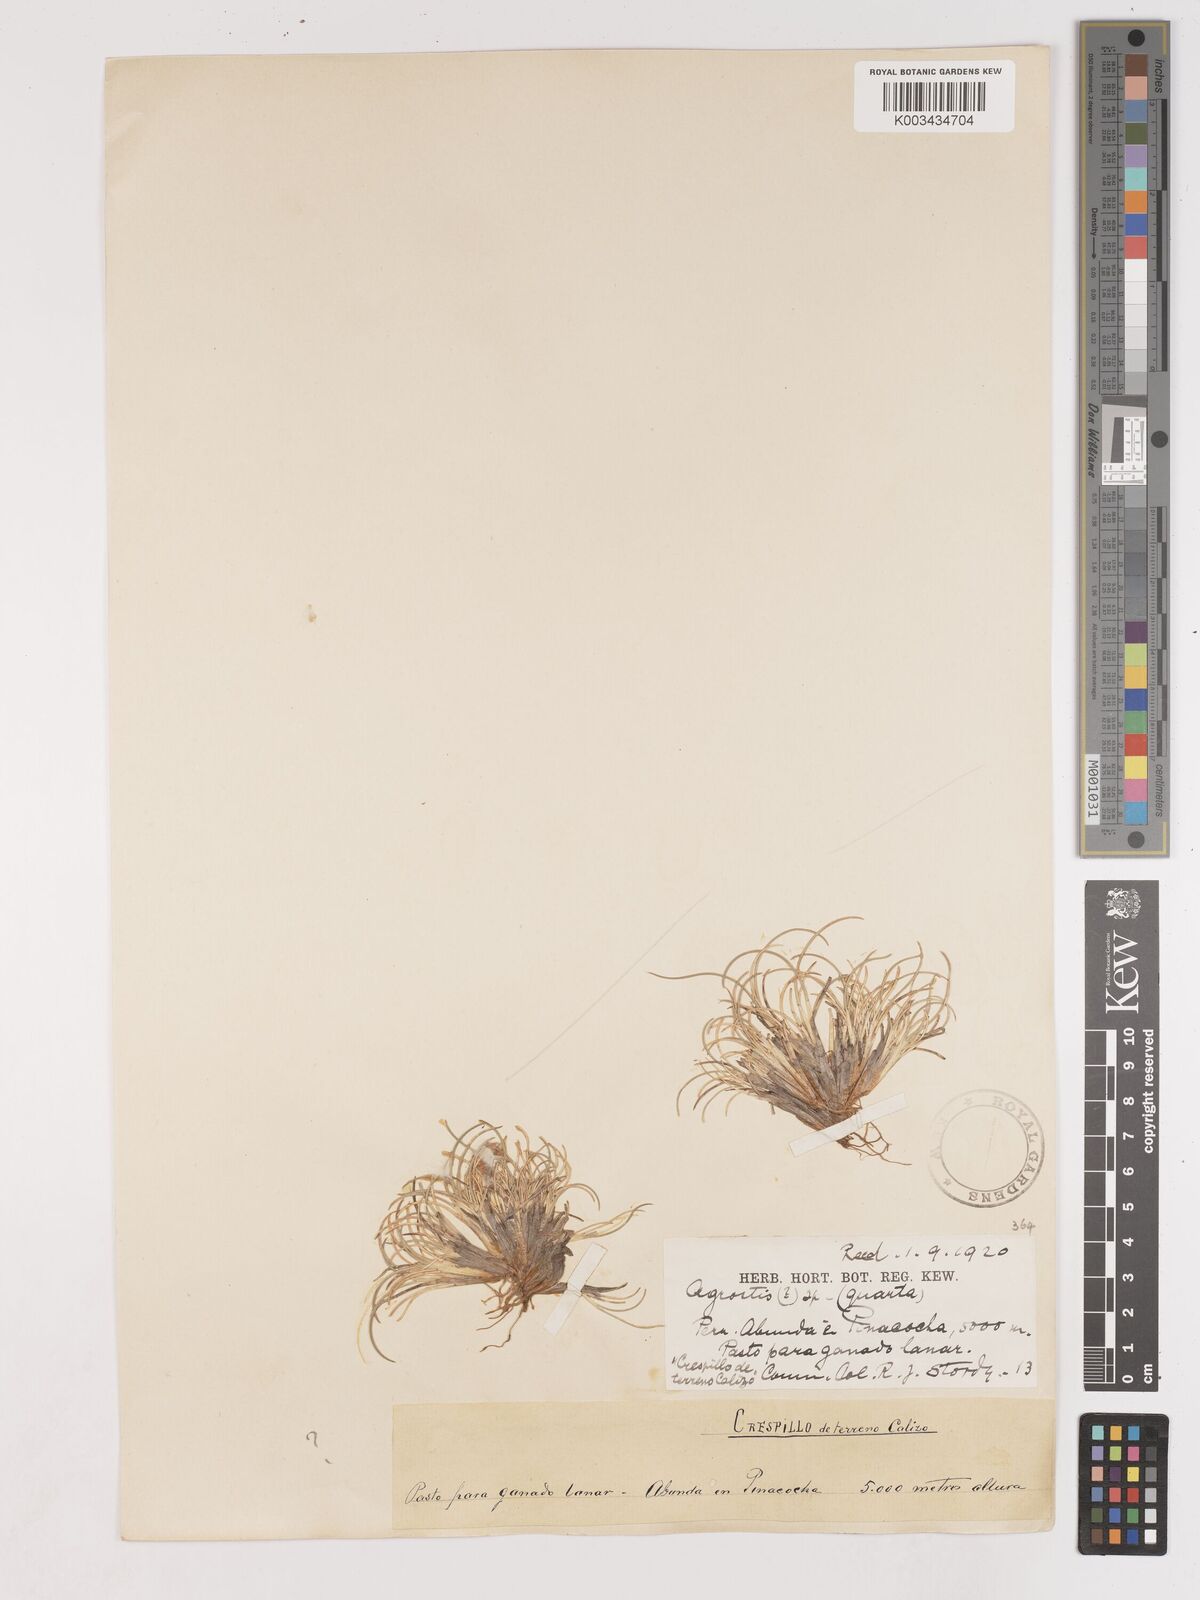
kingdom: Plantae
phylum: Tracheophyta
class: Liliopsida
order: Poales
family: Poaceae
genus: Cinnagrostis
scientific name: Cinnagrostis vicunarum
